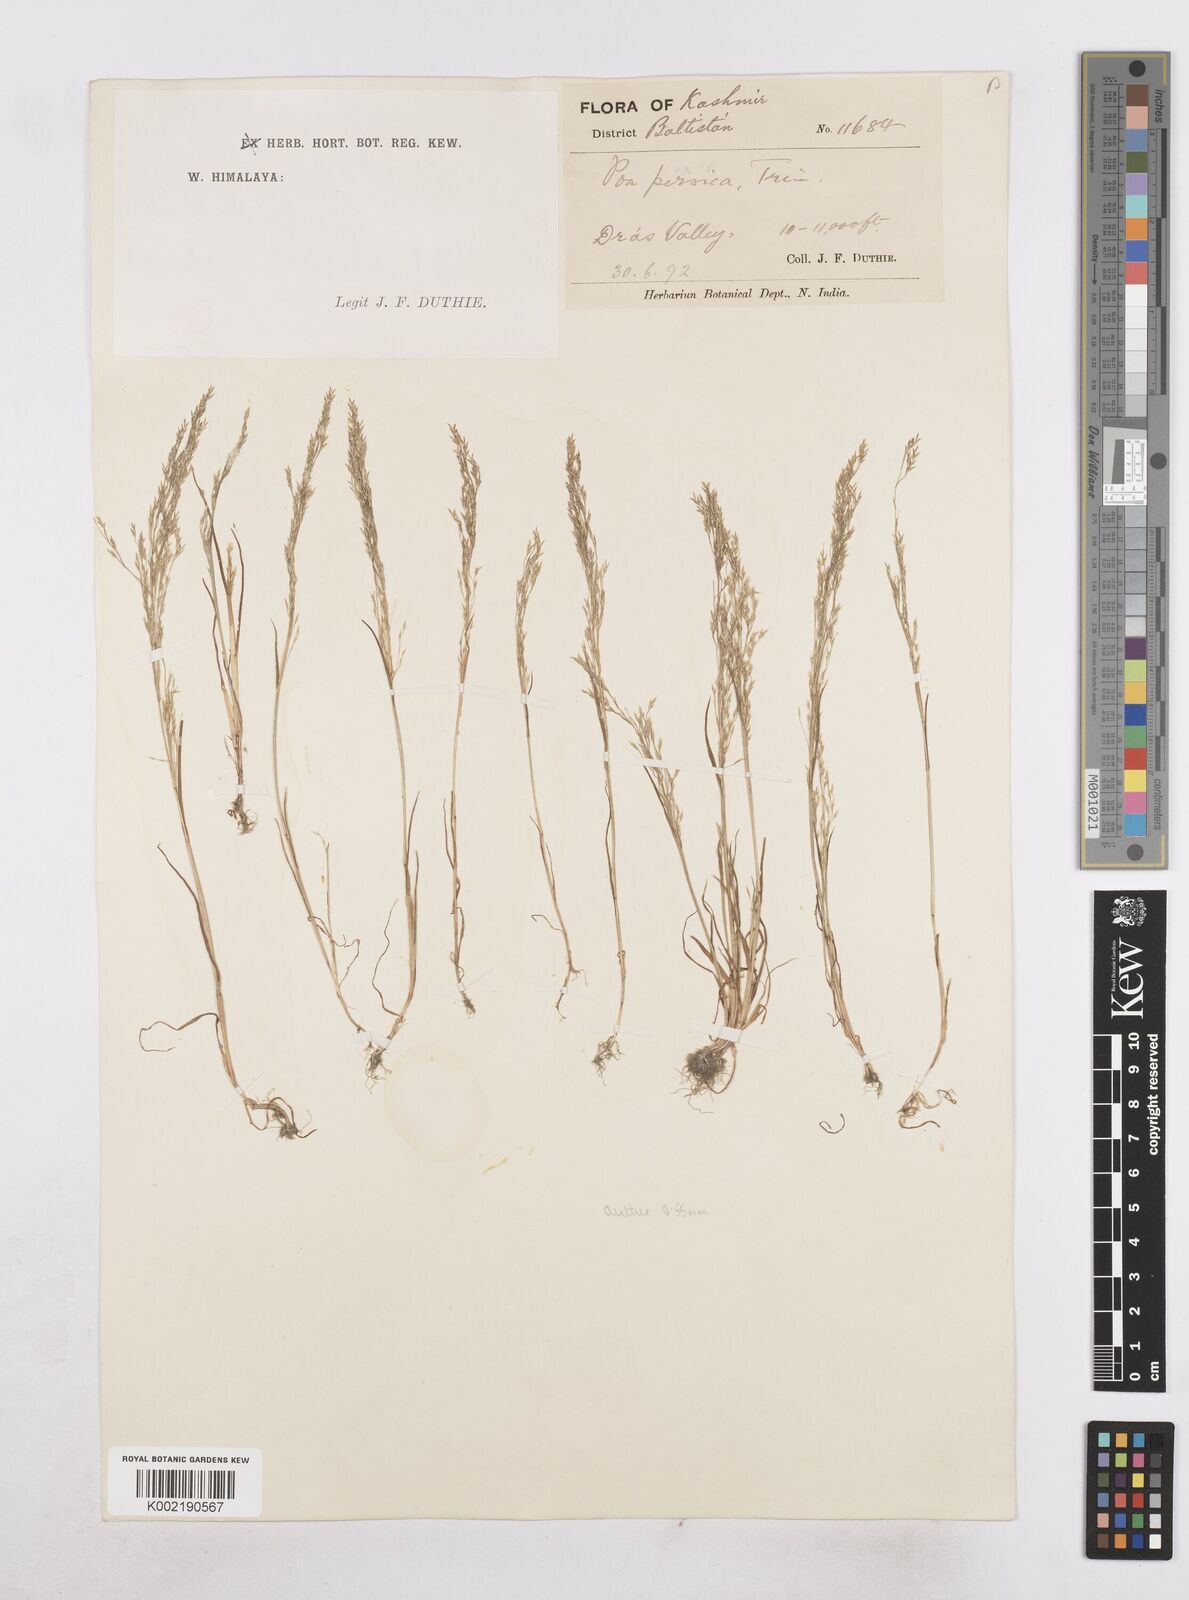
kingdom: Plantae
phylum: Tracheophyta
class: Liliopsida
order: Poales
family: Poaceae
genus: Poa
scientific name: Poa diaphora
